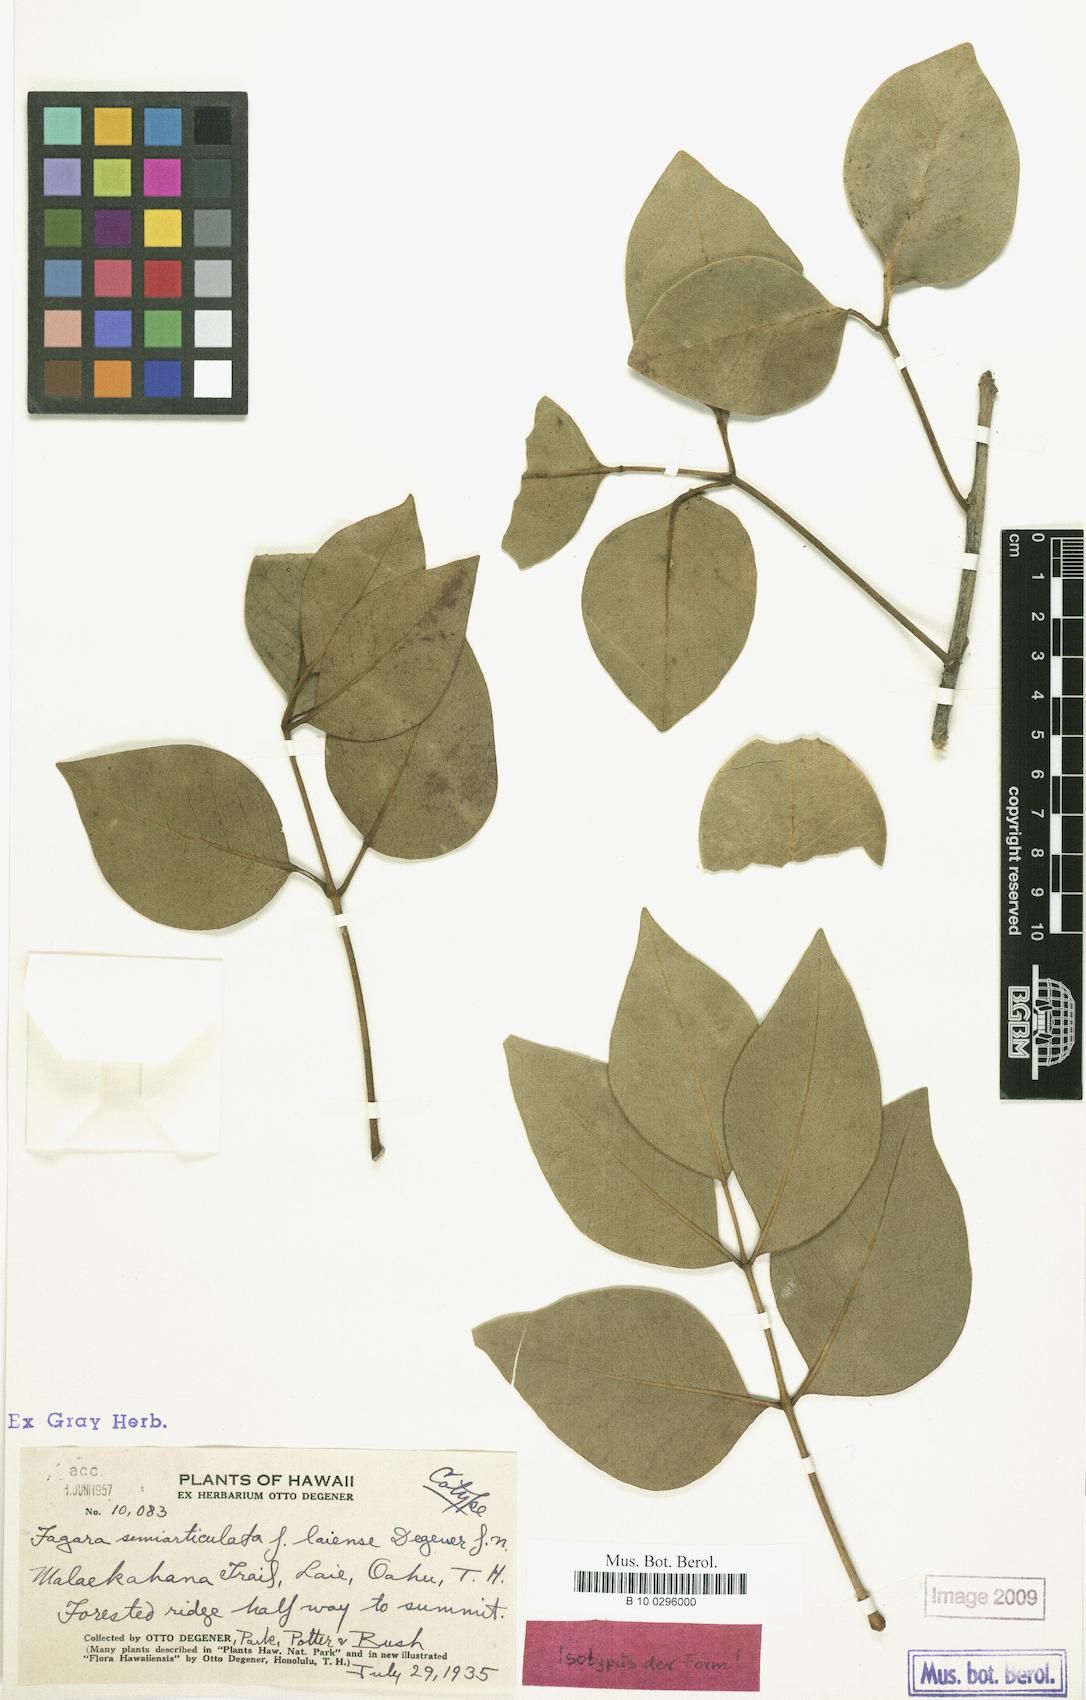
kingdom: Plantae
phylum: Tracheophyta
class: Magnoliopsida
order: Sapindales
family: Rutaceae
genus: Zanthoxylum
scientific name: Zanthoxylum kauaense
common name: Kauai prickly-ash
